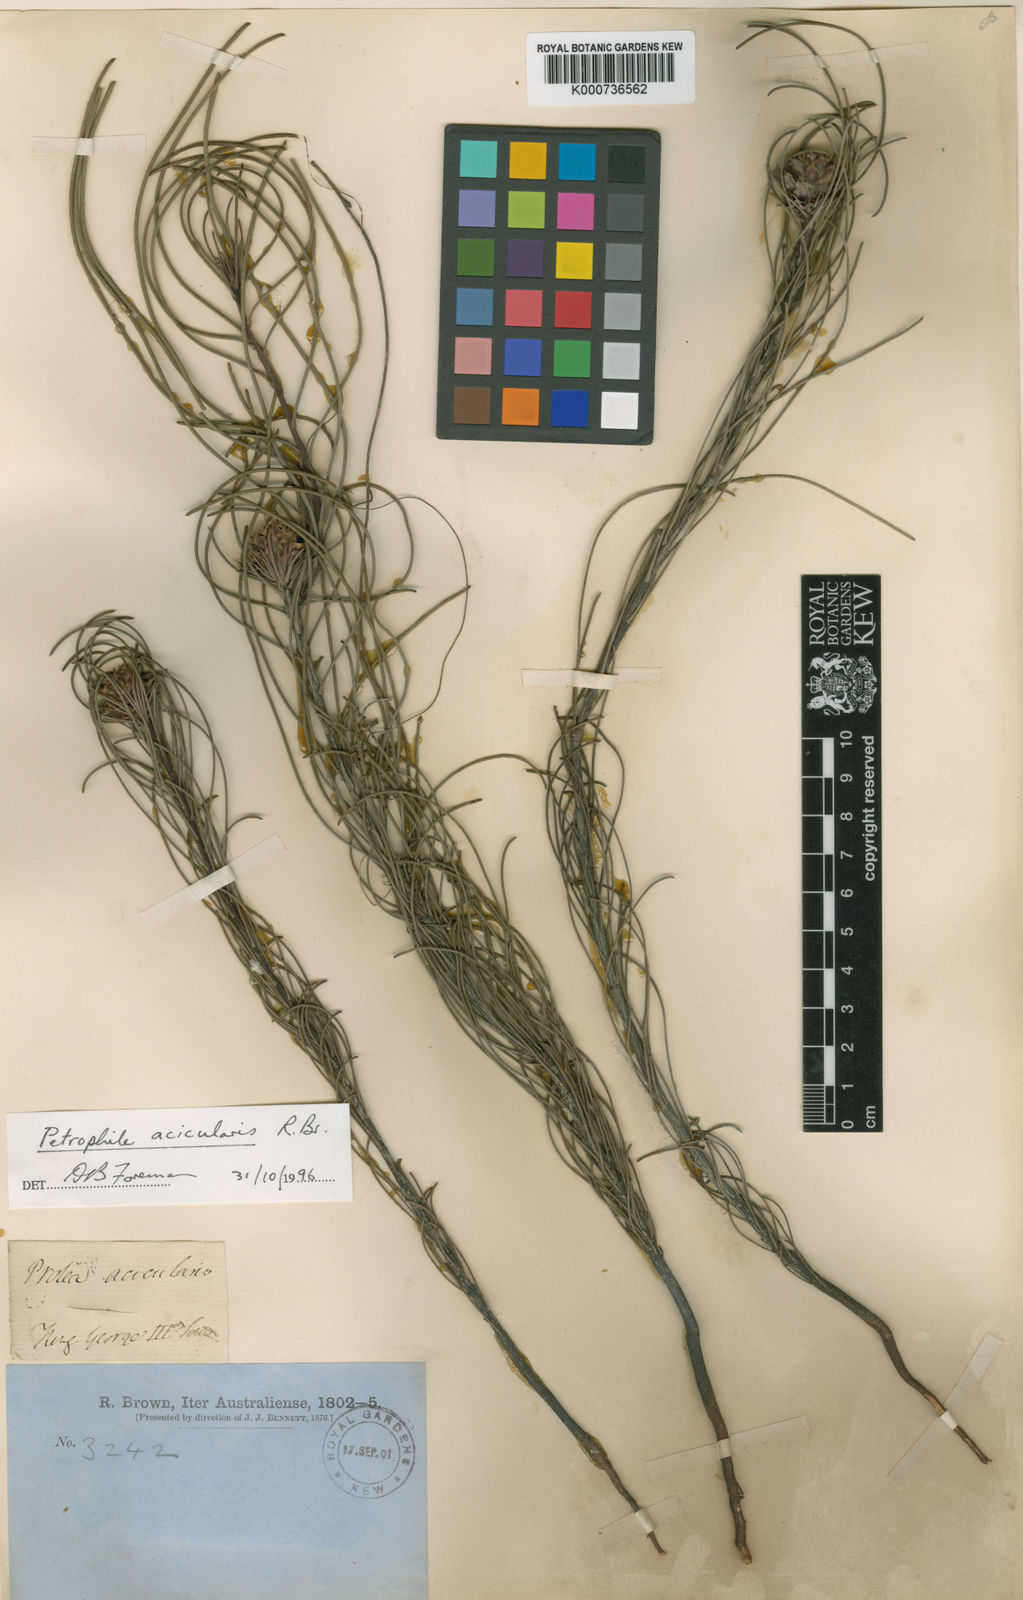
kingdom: Plantae
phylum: Tracheophyta
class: Magnoliopsida
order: Proteales
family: Proteaceae
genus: Petrophile
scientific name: Petrophile acicularis
